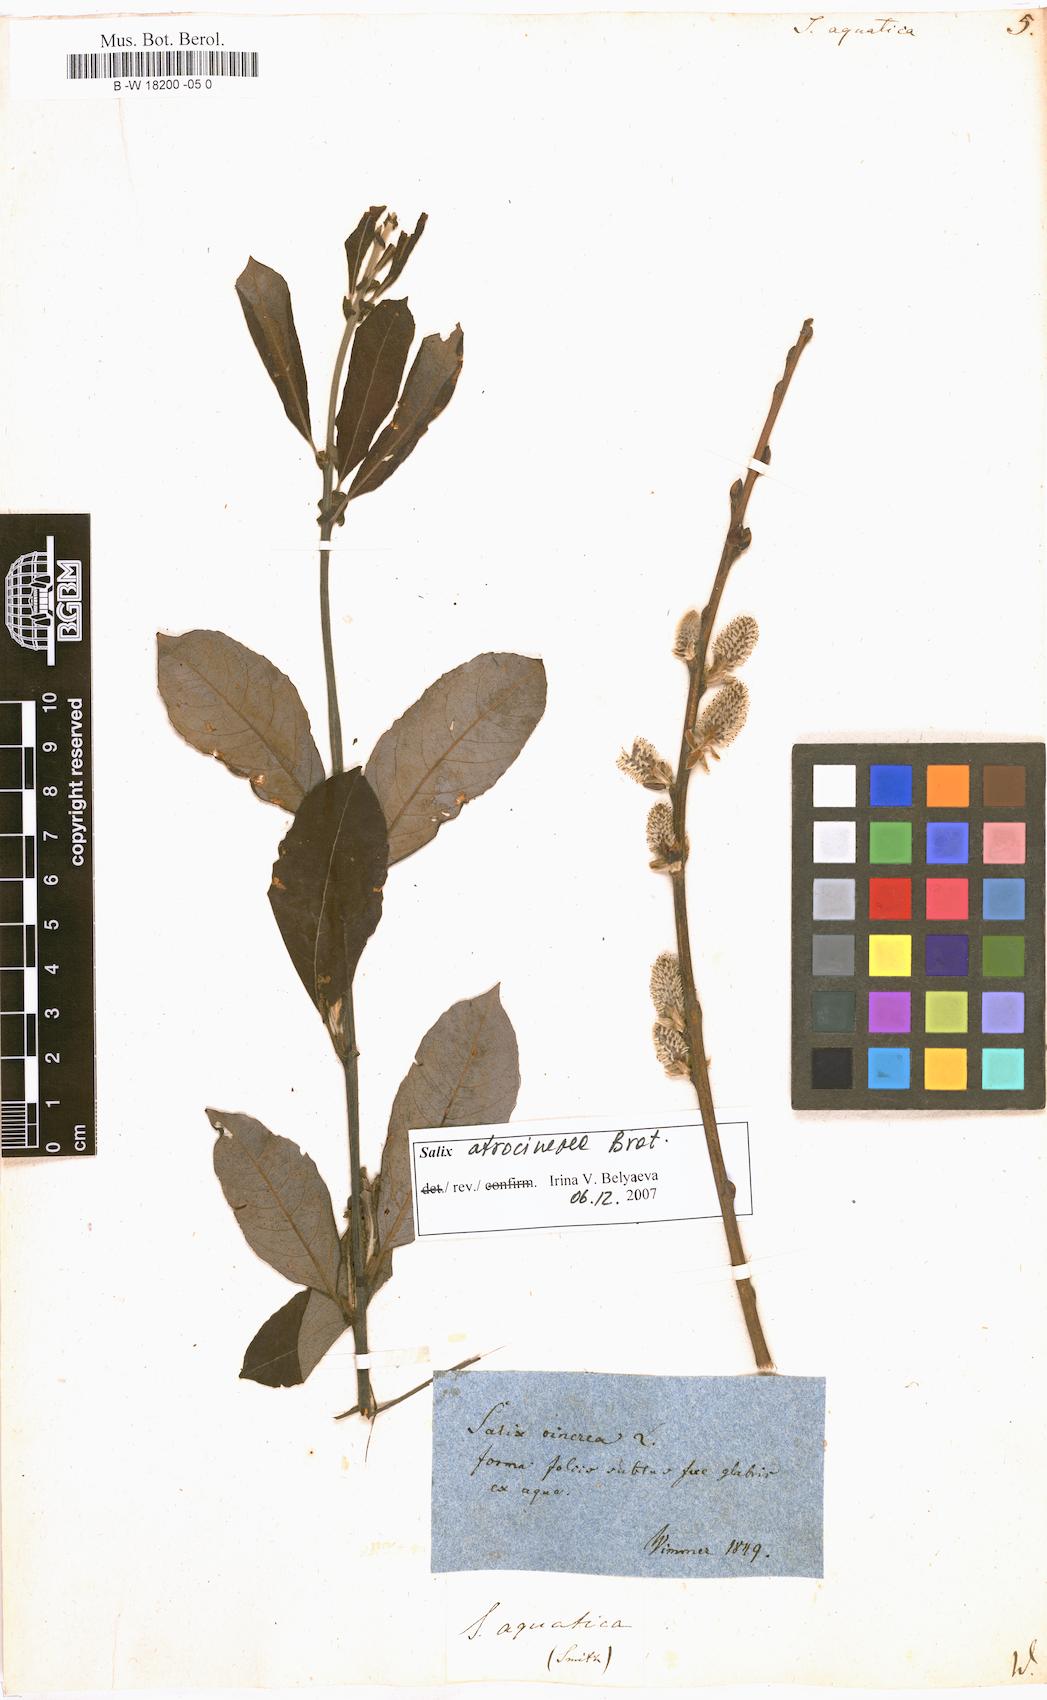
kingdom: Plantae
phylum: Tracheophyta
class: Magnoliopsida
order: Malpighiales
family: Salicaceae
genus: Salix
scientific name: Salix
